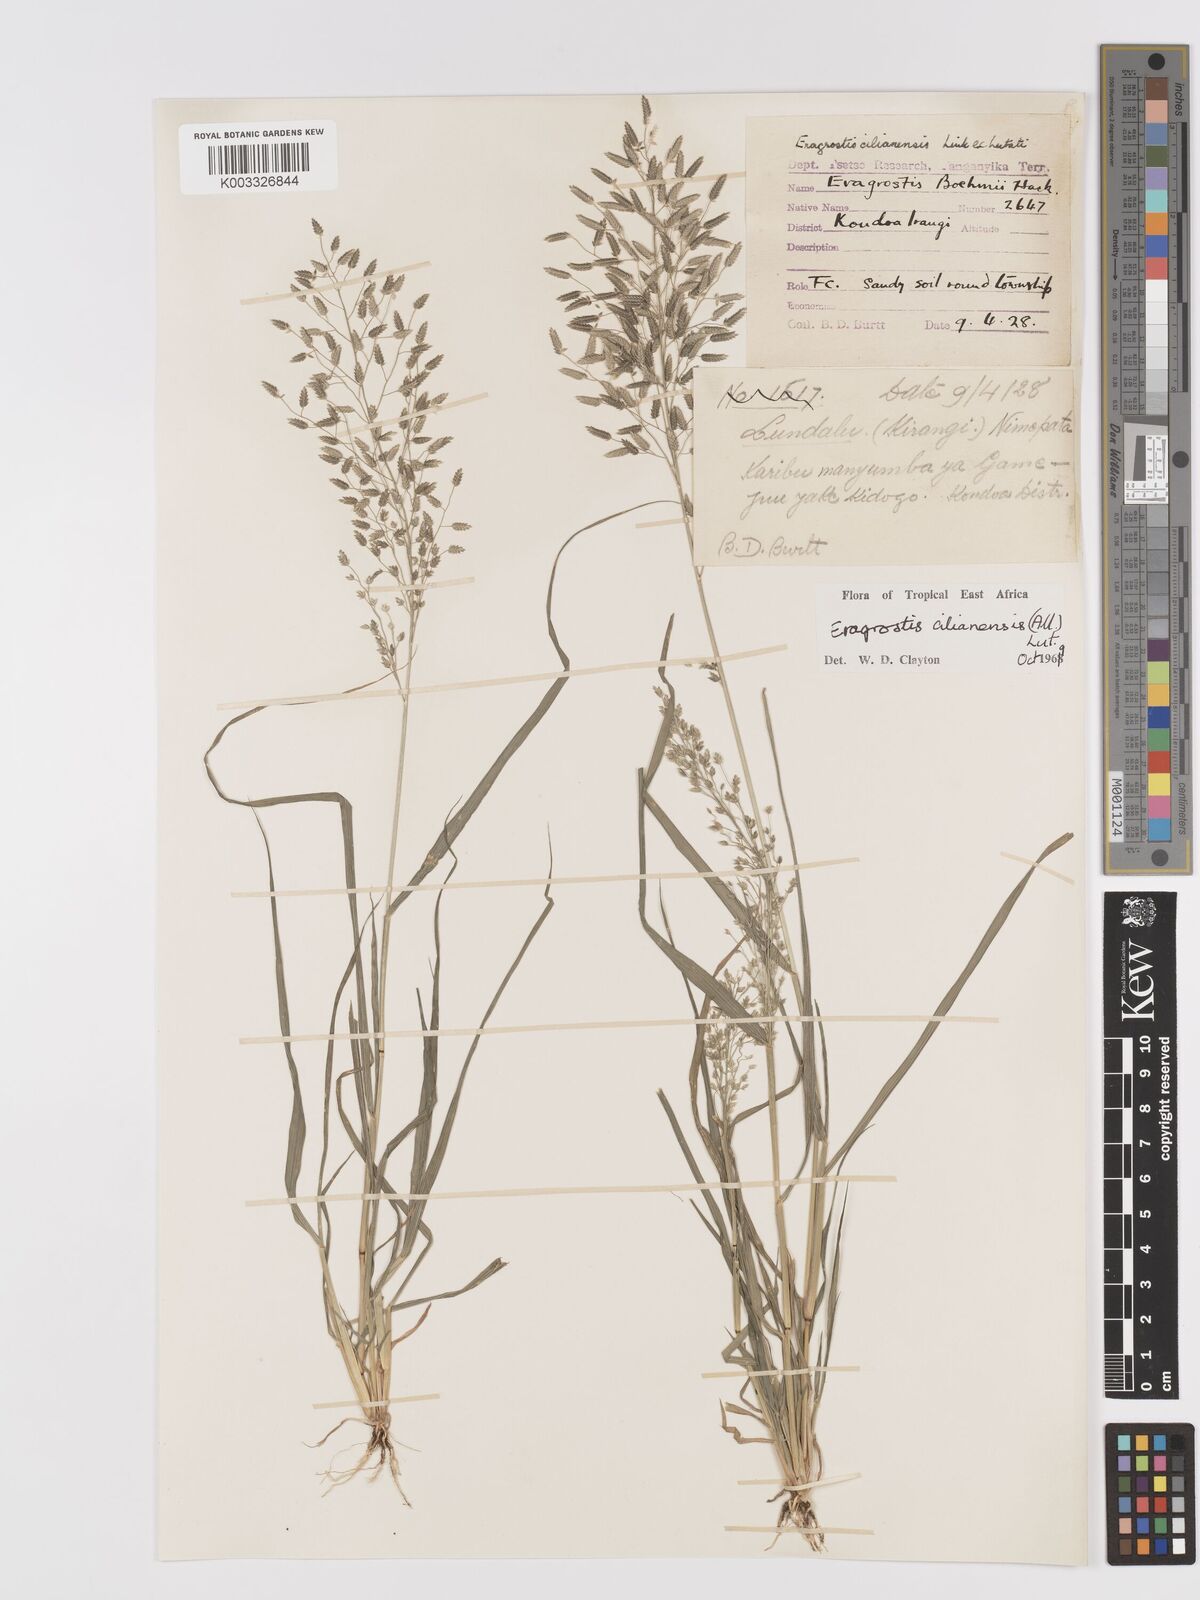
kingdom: Plantae
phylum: Tracheophyta
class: Liliopsida
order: Poales
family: Poaceae
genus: Eragrostis
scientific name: Eragrostis cilianensis
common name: Stinkgrass
